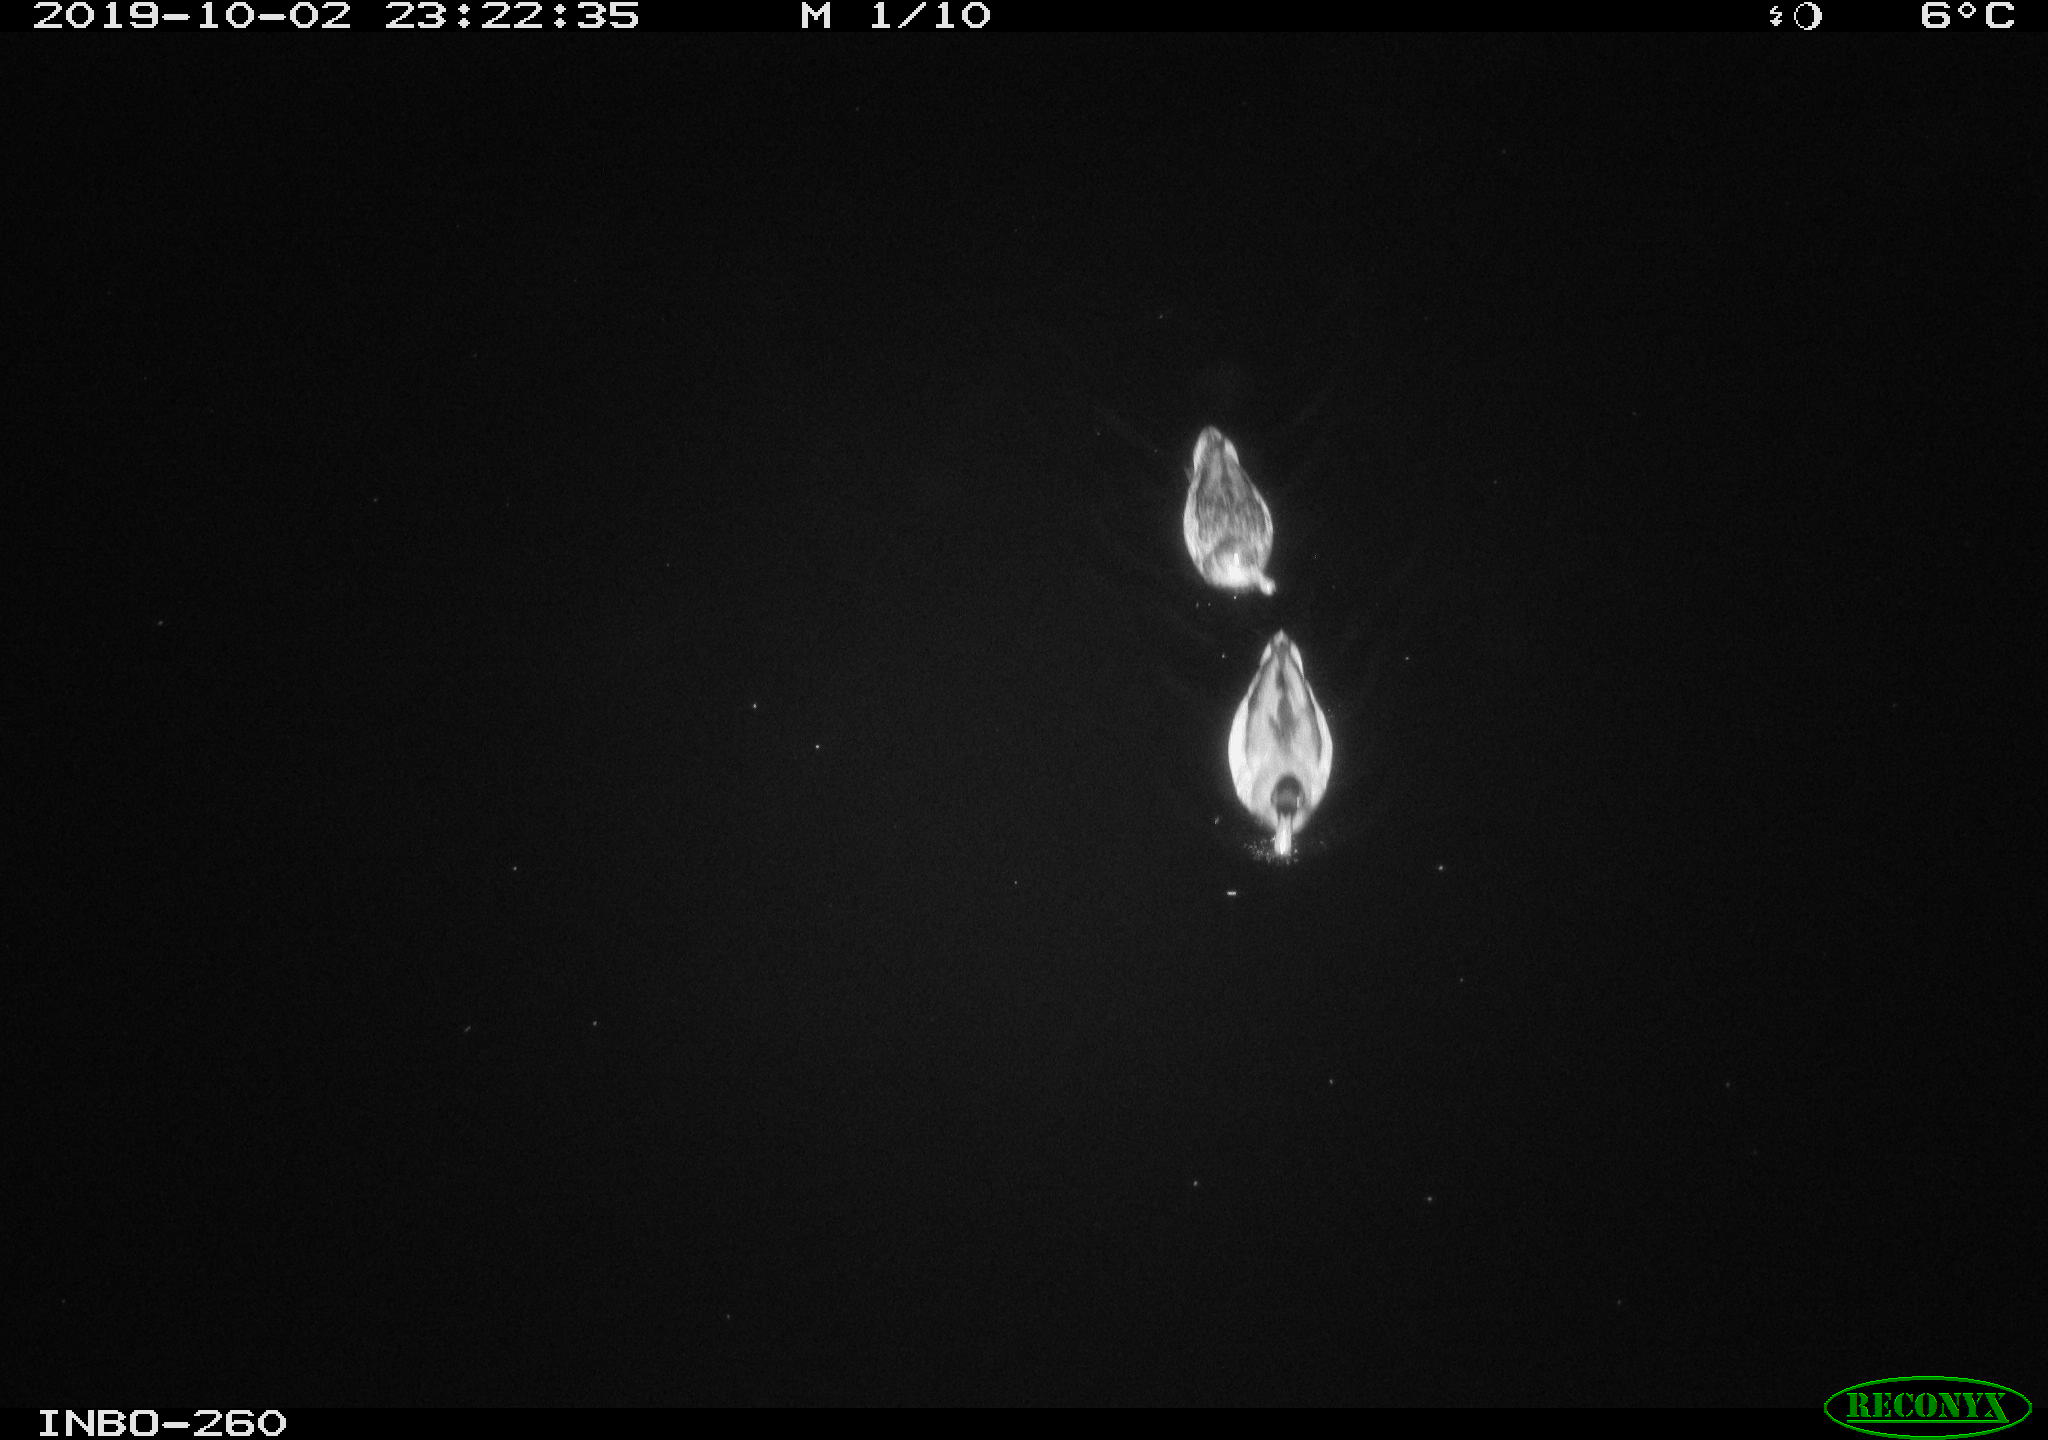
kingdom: Animalia
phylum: Chordata
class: Aves
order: Anseriformes
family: Anatidae
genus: Anas
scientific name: Anas platyrhynchos
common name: Mallard
